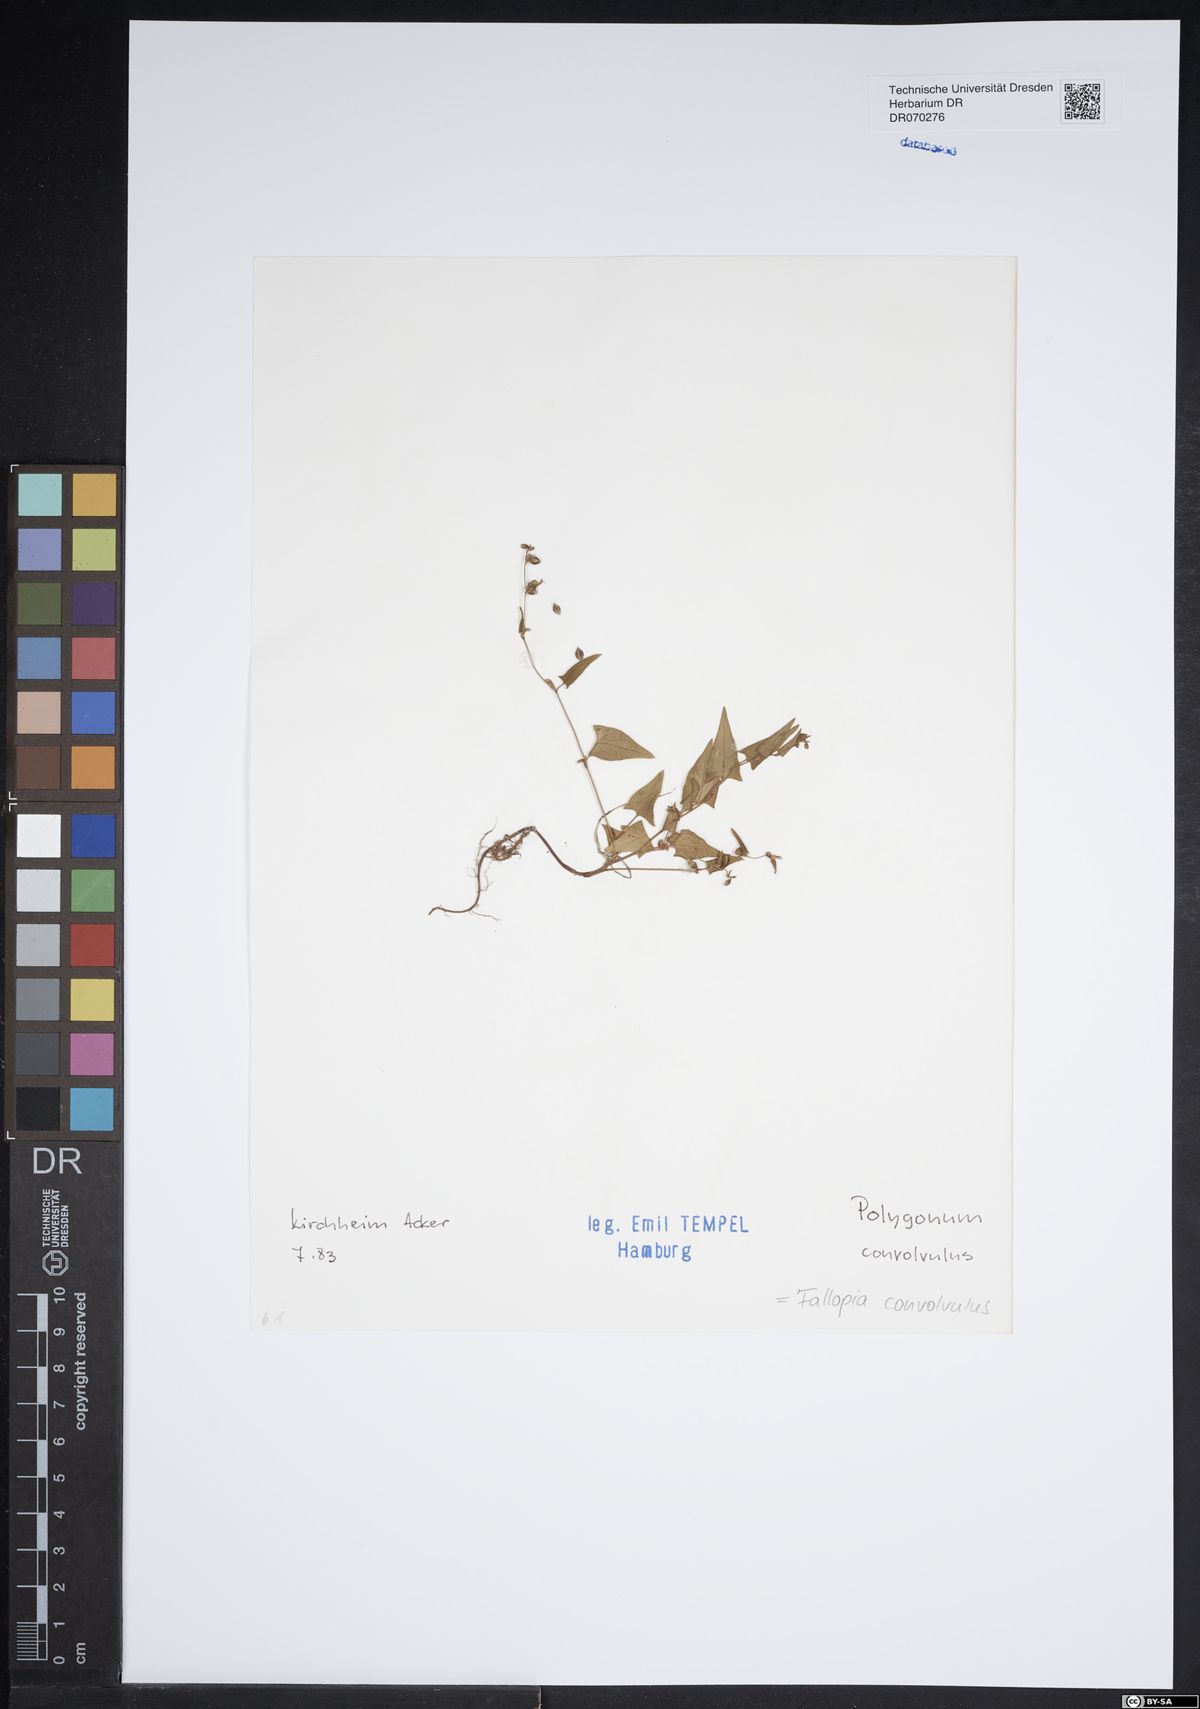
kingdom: Plantae
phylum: Tracheophyta
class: Magnoliopsida
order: Caryophyllales
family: Polygonaceae
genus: Fallopia
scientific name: Fallopia convolvulus
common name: Black bindweed
